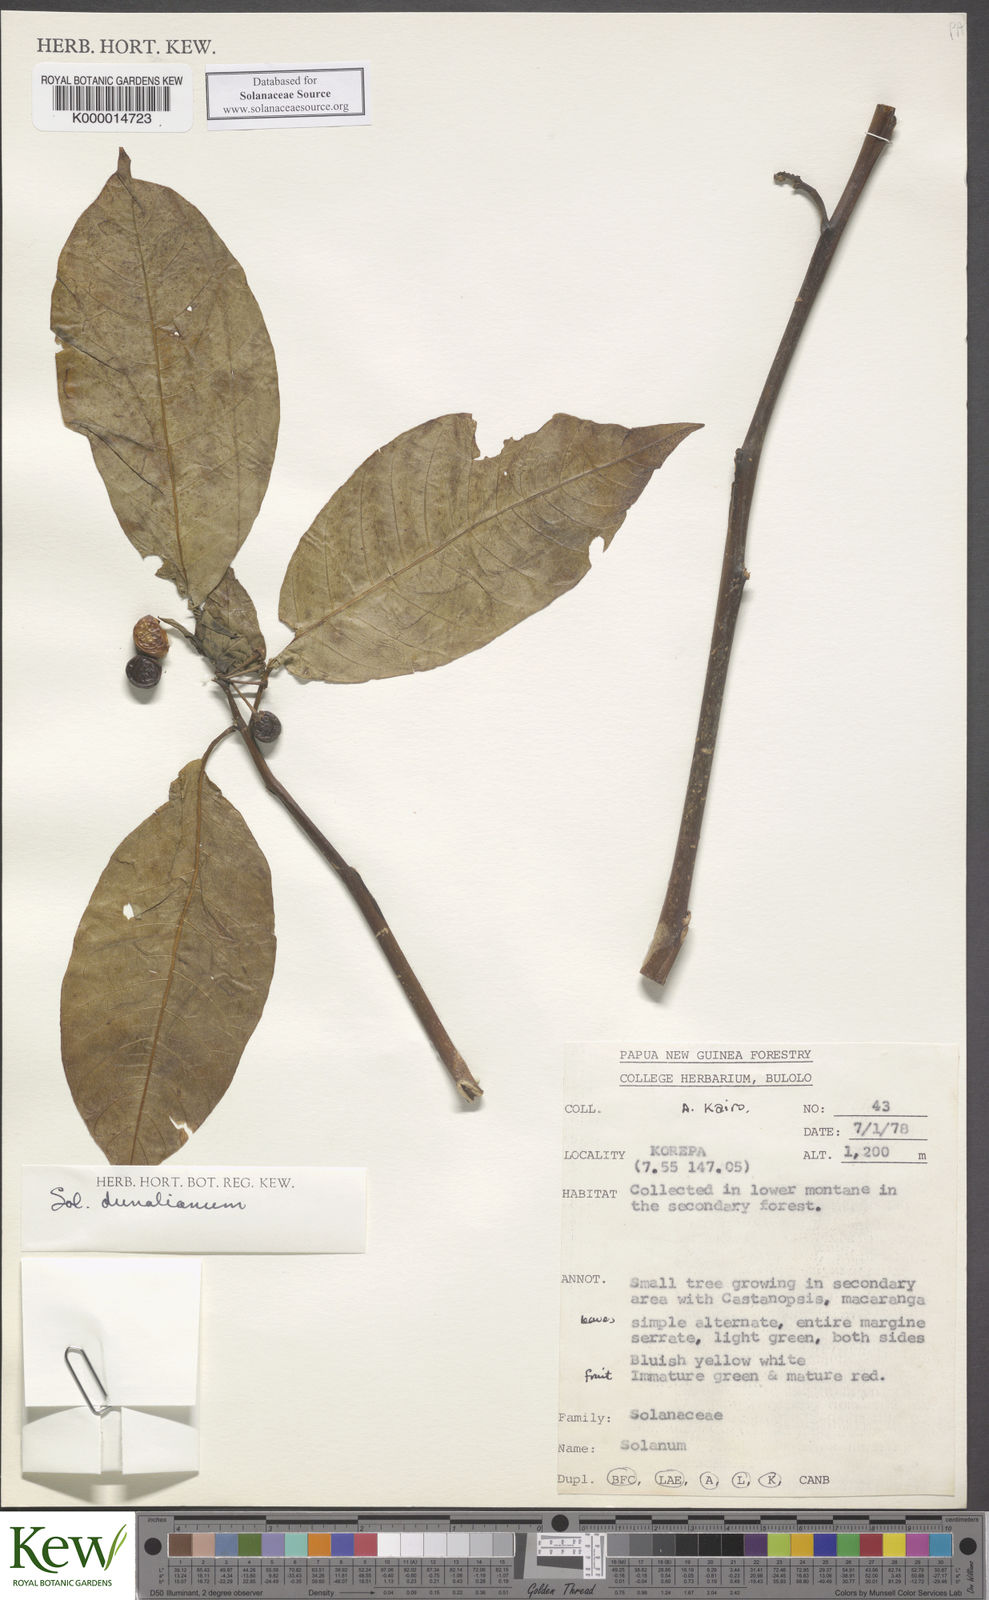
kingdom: Plantae
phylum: Tracheophyta
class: Magnoliopsida
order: Solanales
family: Solanaceae
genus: Solanum
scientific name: Solanum dunalianum
